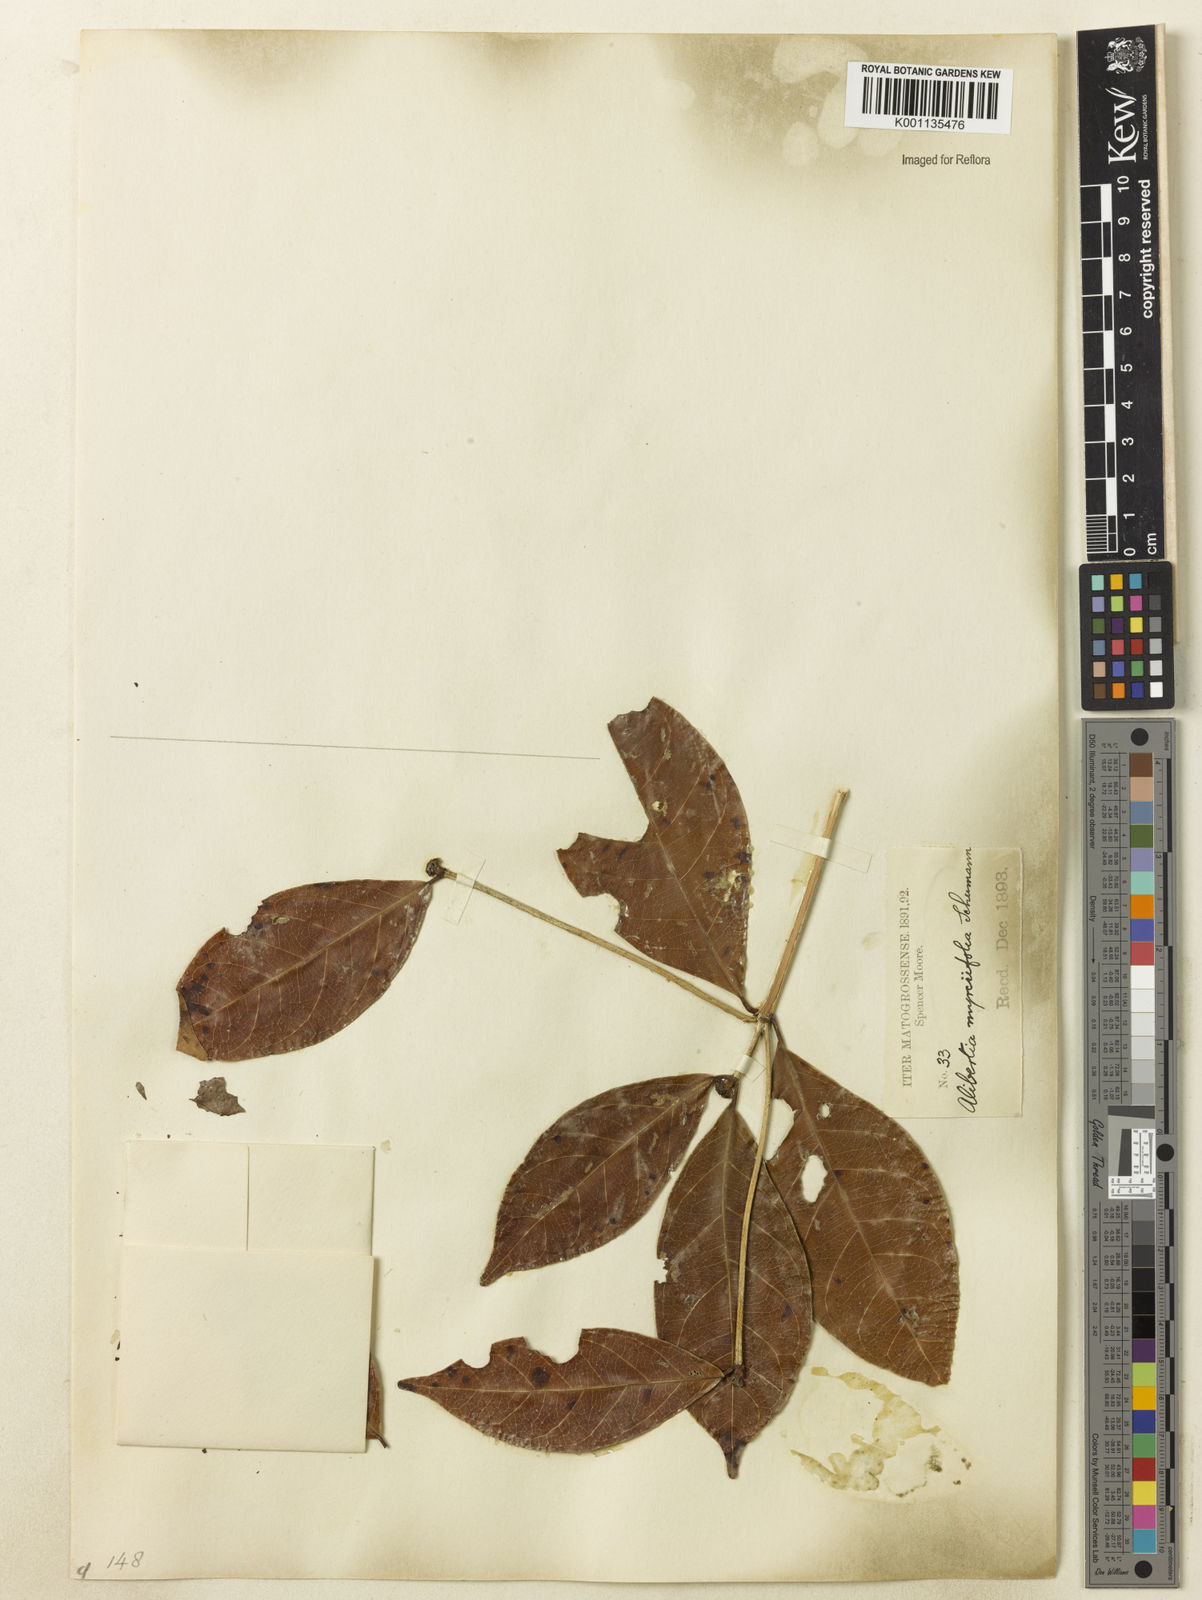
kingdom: Plantae
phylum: Tracheophyta
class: Magnoliopsida
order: Gentianales
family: Rubiaceae
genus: Cordiera
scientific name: Cordiera myrciifolia
